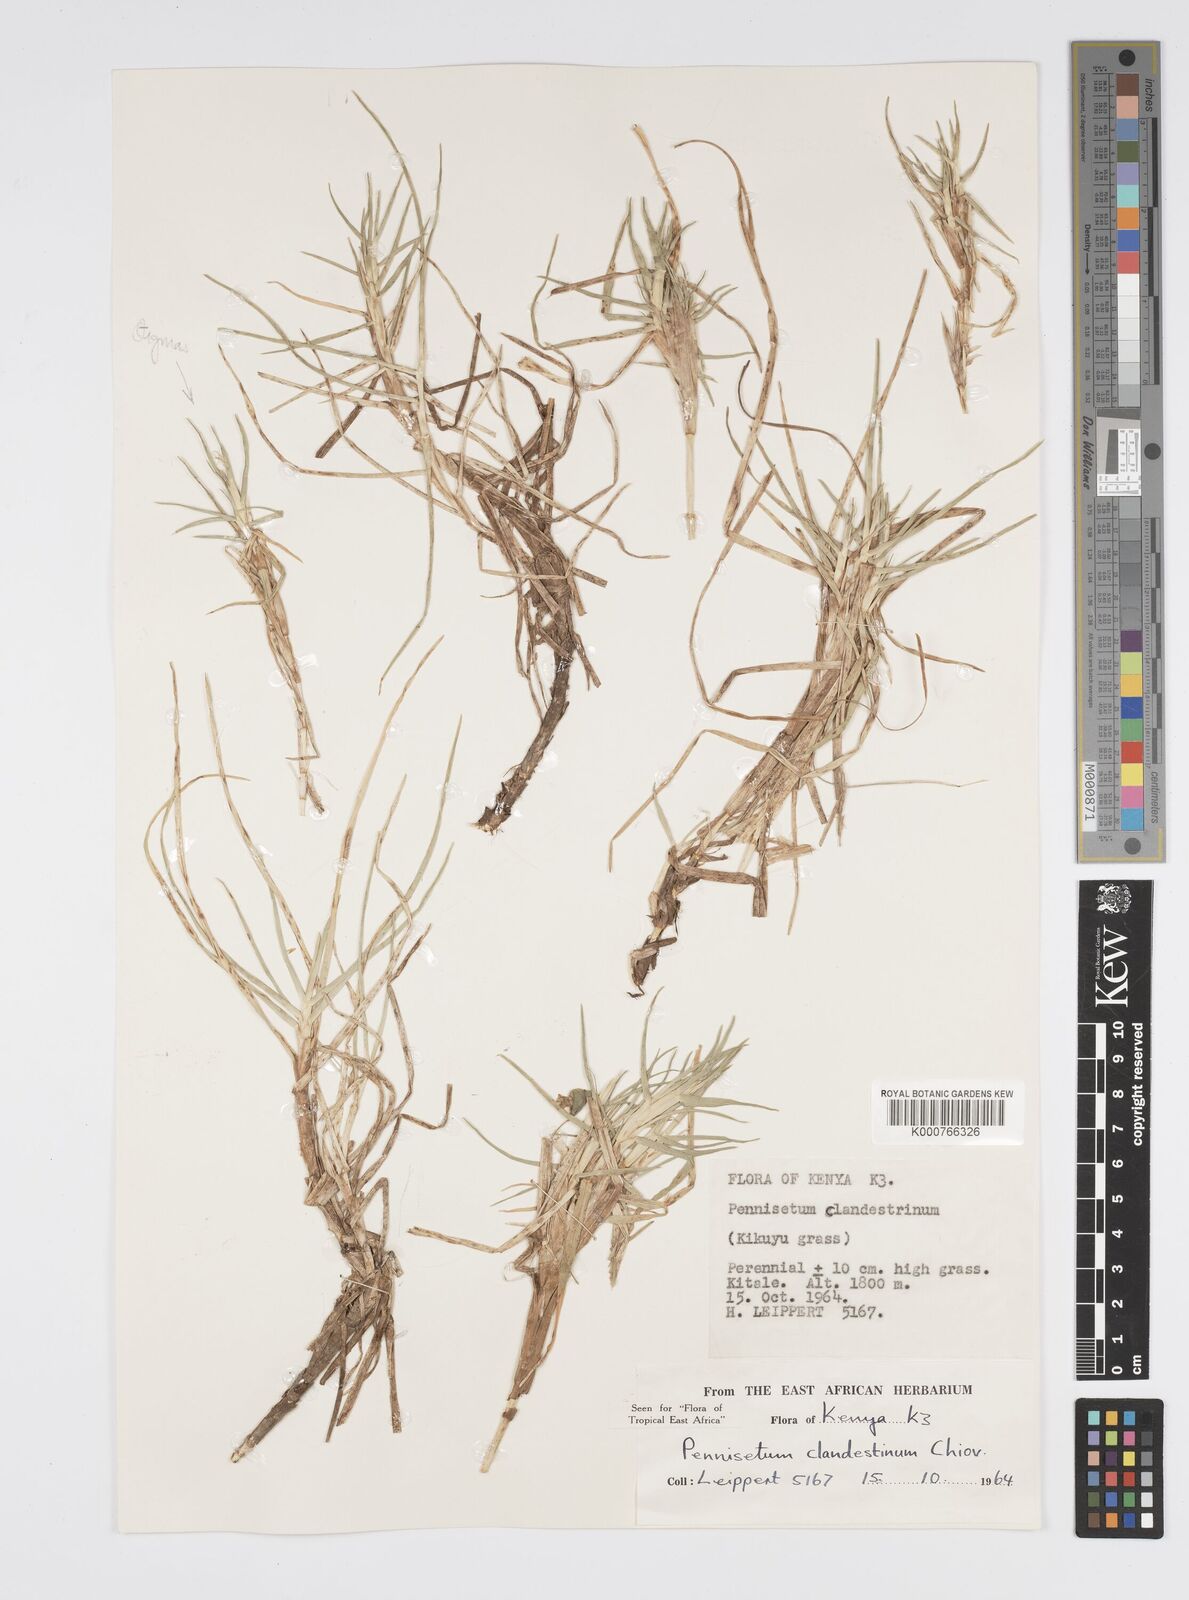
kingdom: Plantae
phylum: Tracheophyta
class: Liliopsida
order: Poales
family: Poaceae
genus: Cenchrus
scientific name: Cenchrus clandestinus
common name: Kikuyugrass
